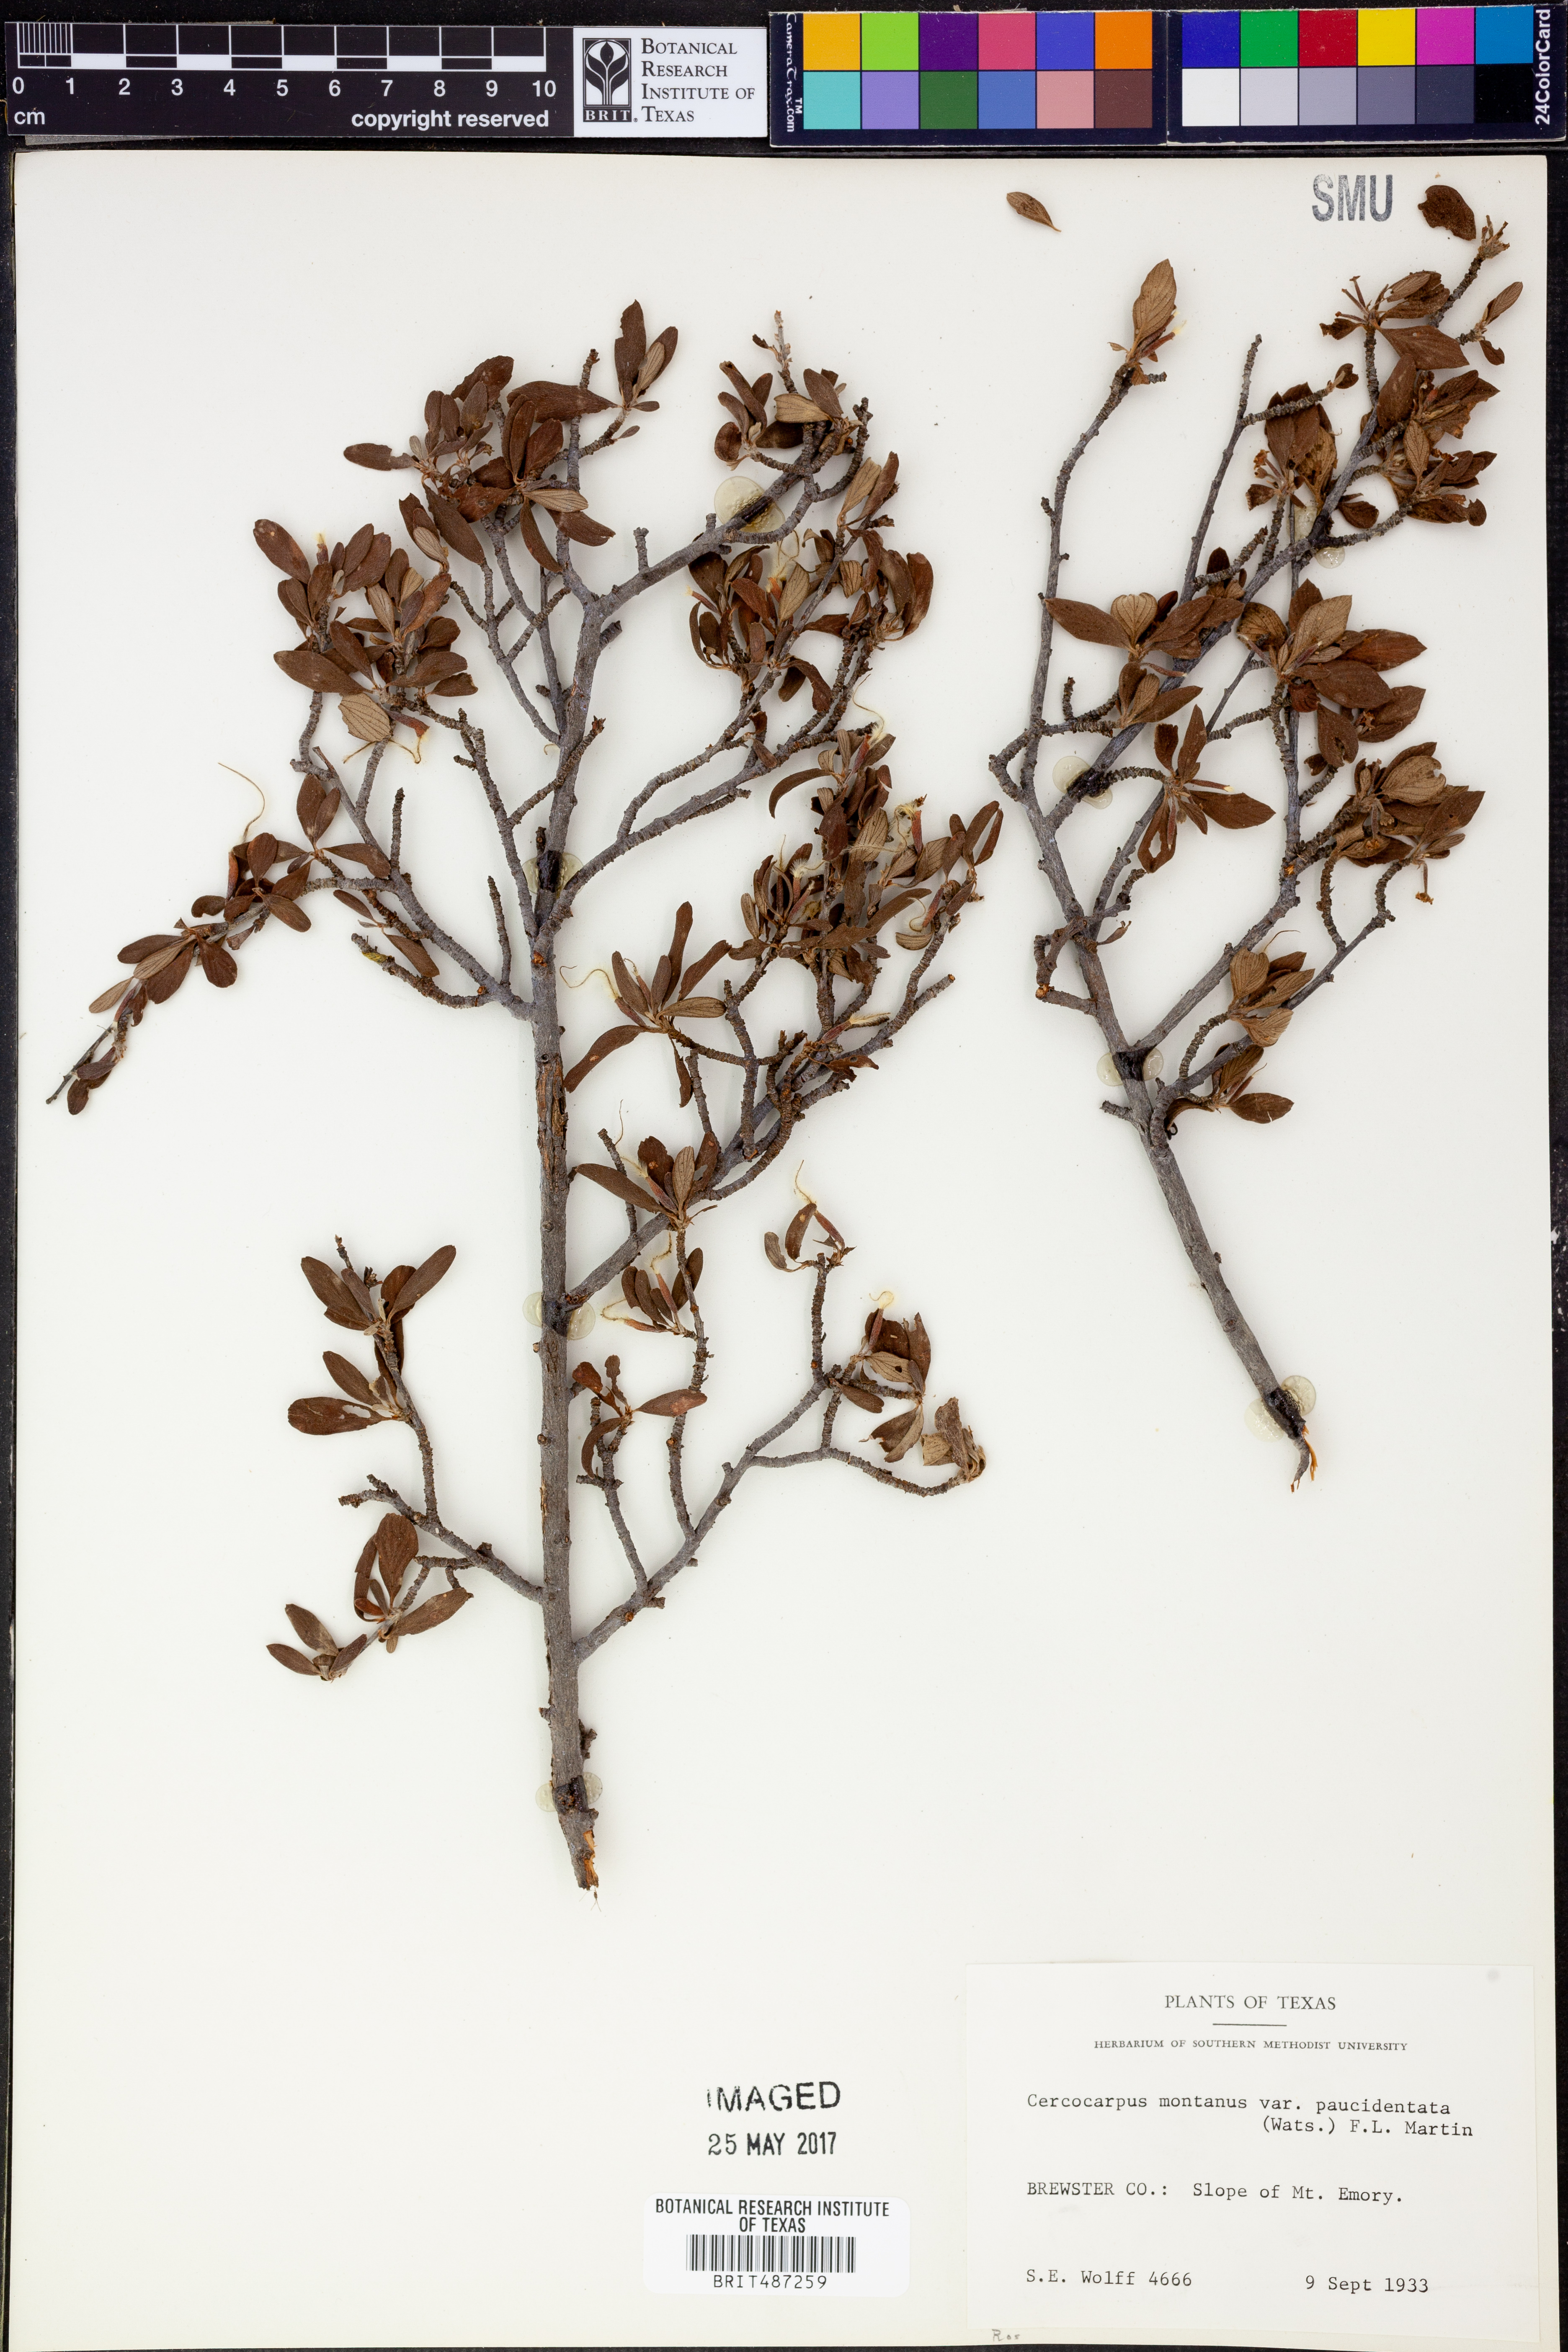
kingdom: Plantae
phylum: Tracheophyta
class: Magnoliopsida
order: Rosales
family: Rosaceae
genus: Cercocarpus
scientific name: Cercocarpus breviflorus
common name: Wright's mountain-mahogany
